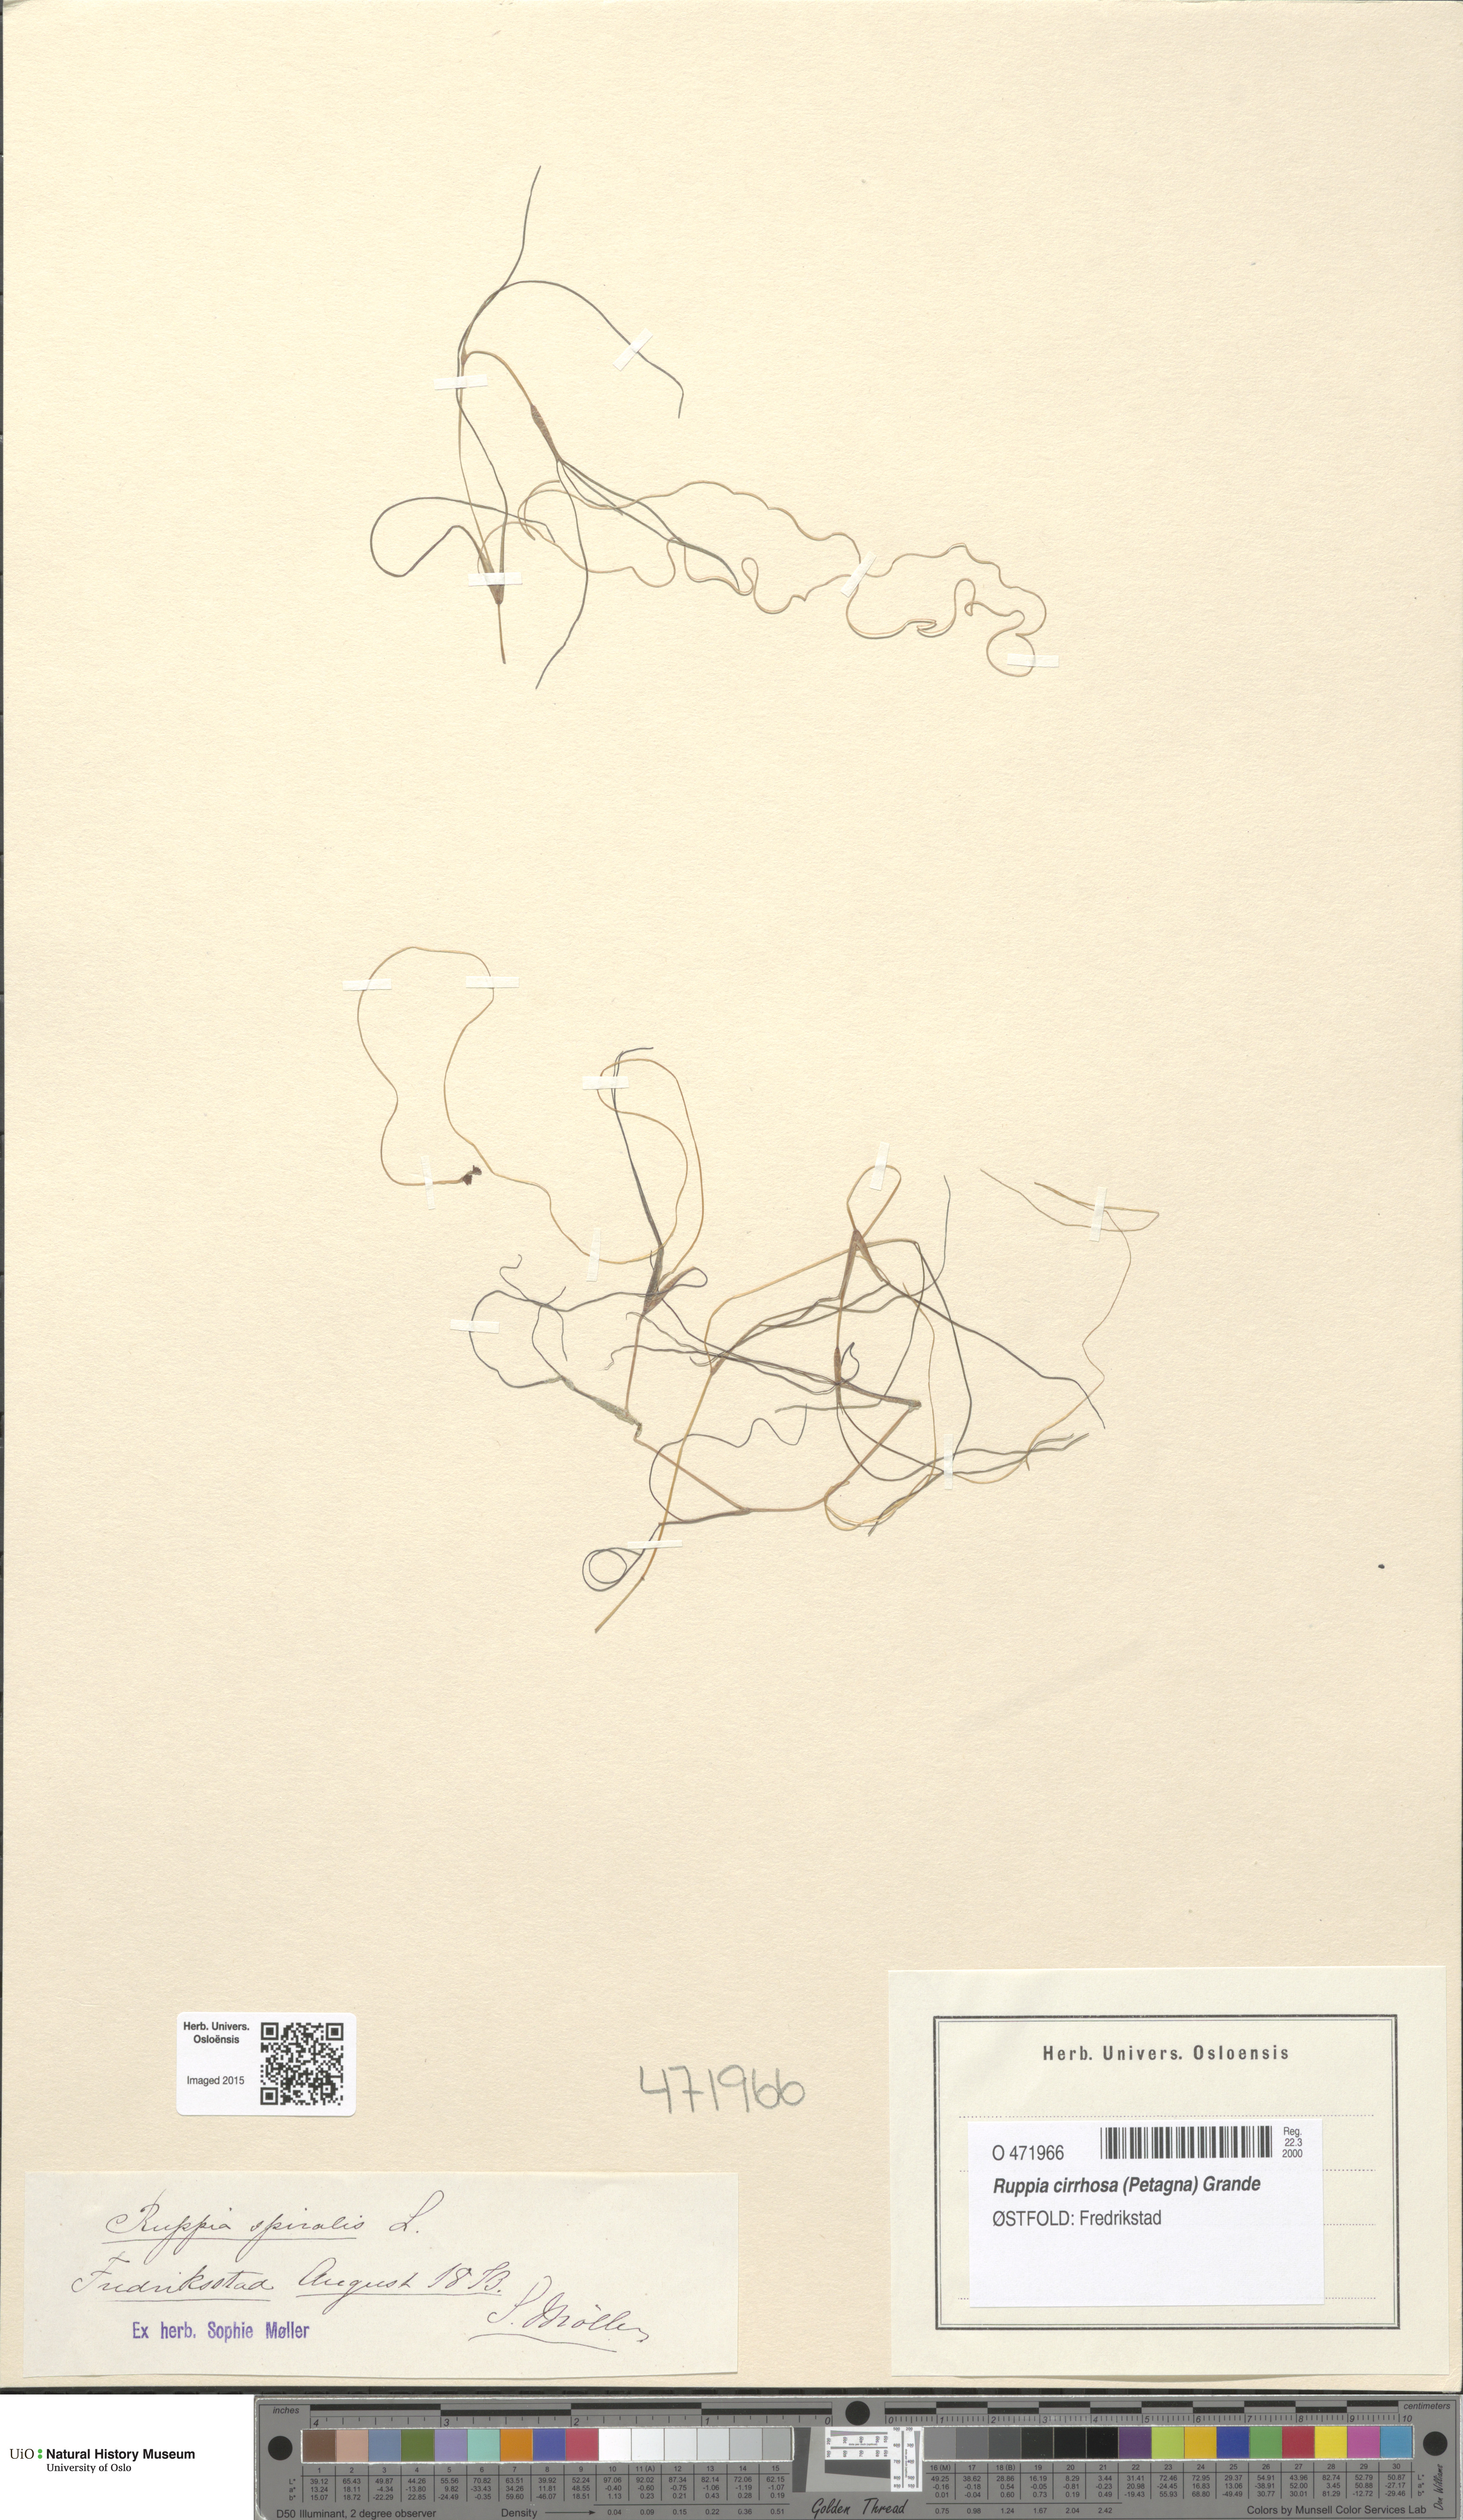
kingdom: Plantae
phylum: Tracheophyta
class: Liliopsida
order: Alismatales
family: Ruppiaceae
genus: Ruppia
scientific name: Ruppia cirrhosa
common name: Spiral tasselweed
